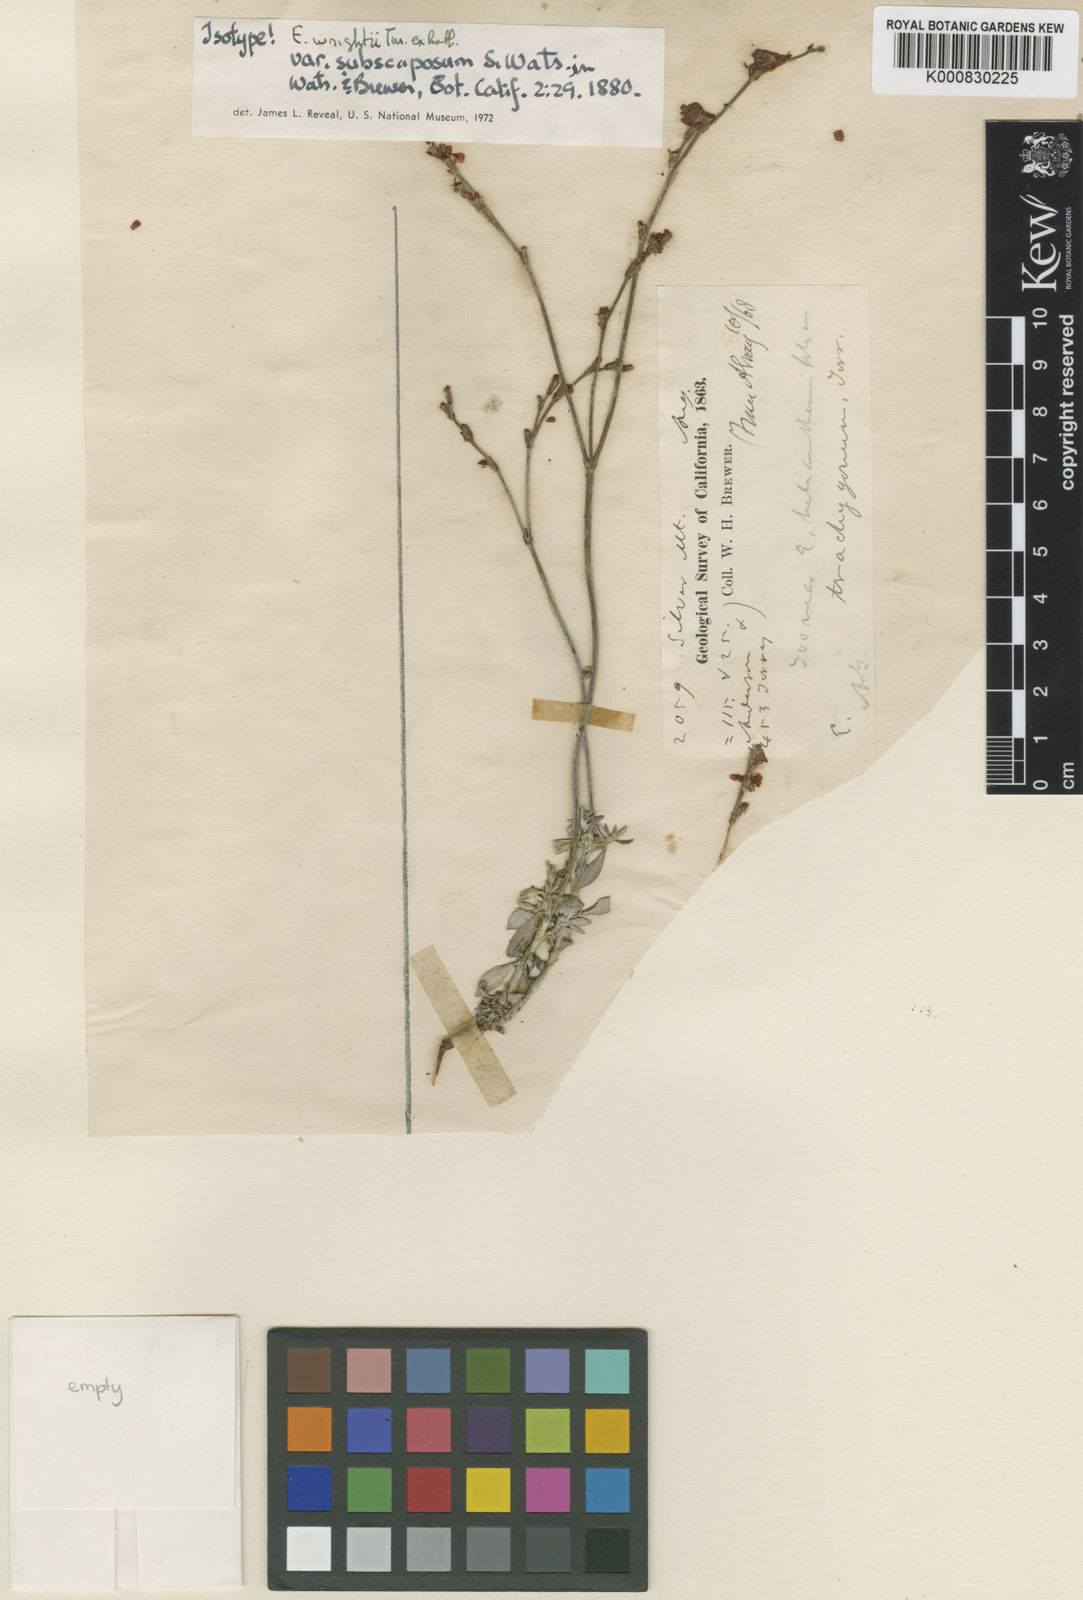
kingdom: Plantae
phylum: Tracheophyta
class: Magnoliopsida
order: Caryophyllales
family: Polygonaceae
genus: Eriogonum
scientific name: Eriogonum wrightii
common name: Bastard-sage
